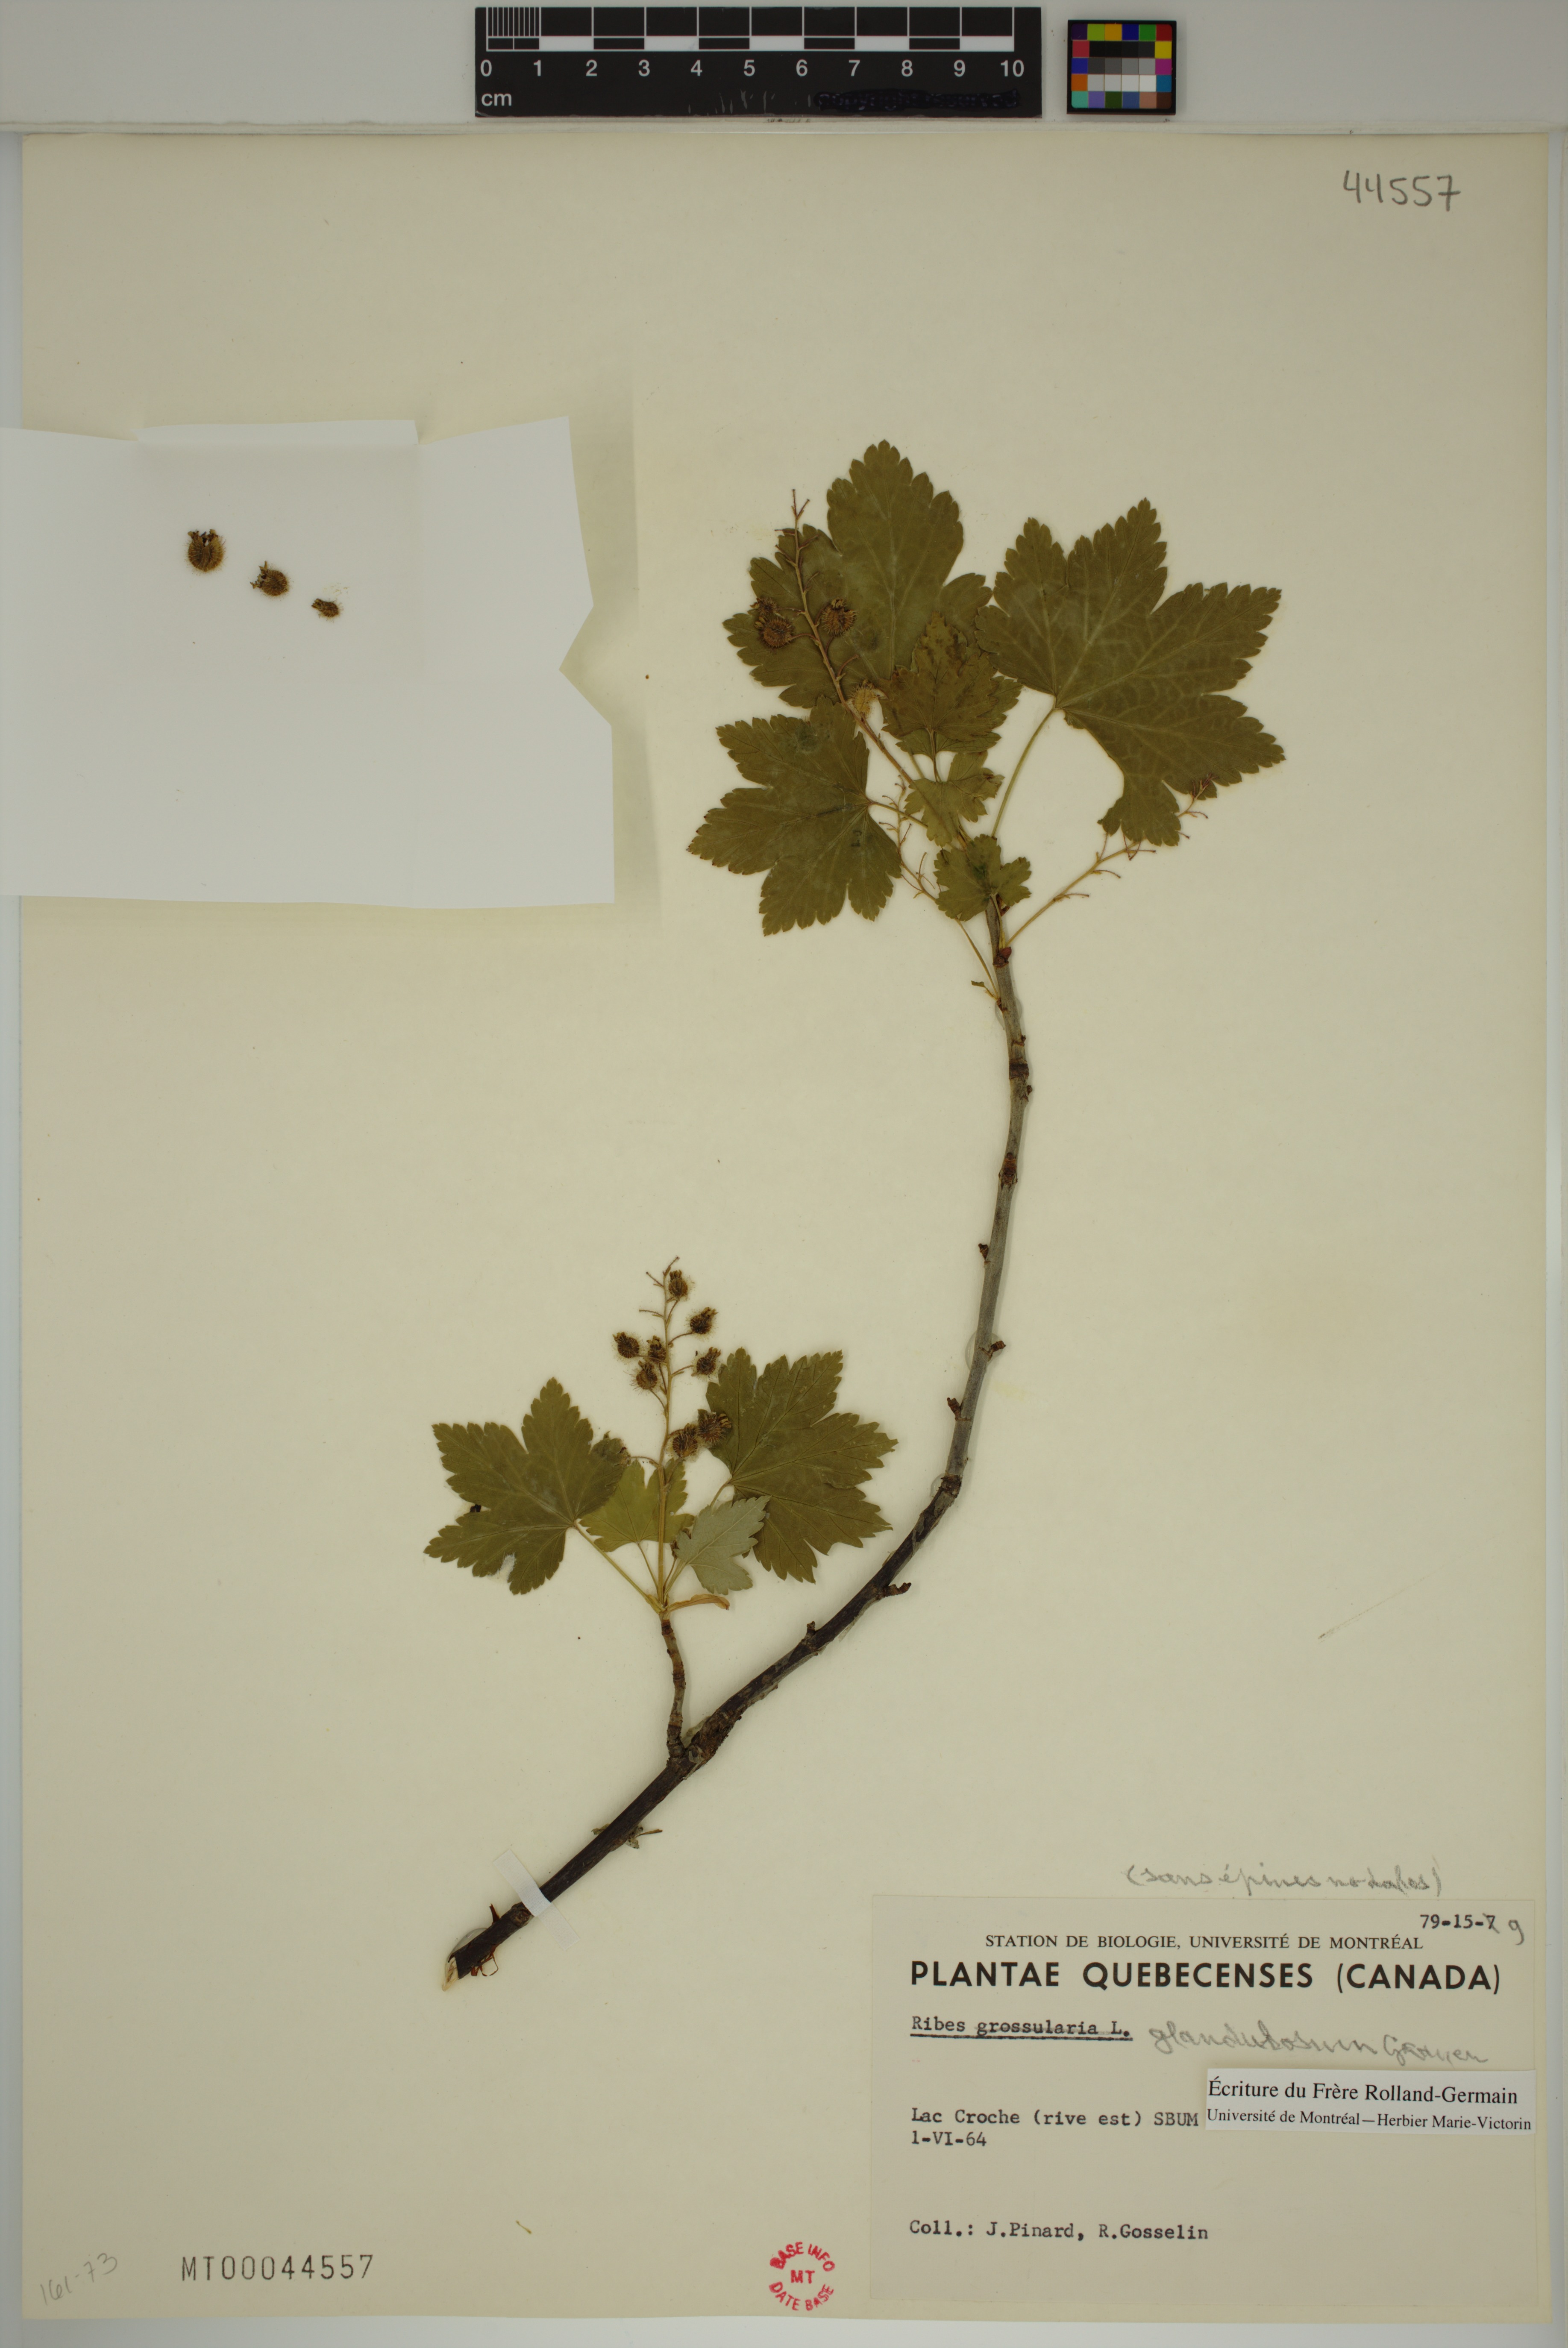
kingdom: Plantae
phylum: Tracheophyta
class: Magnoliopsida
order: Saxifragales
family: Grossulariaceae
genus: Ribes
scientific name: Ribes glandulosum
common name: Skunk currant
